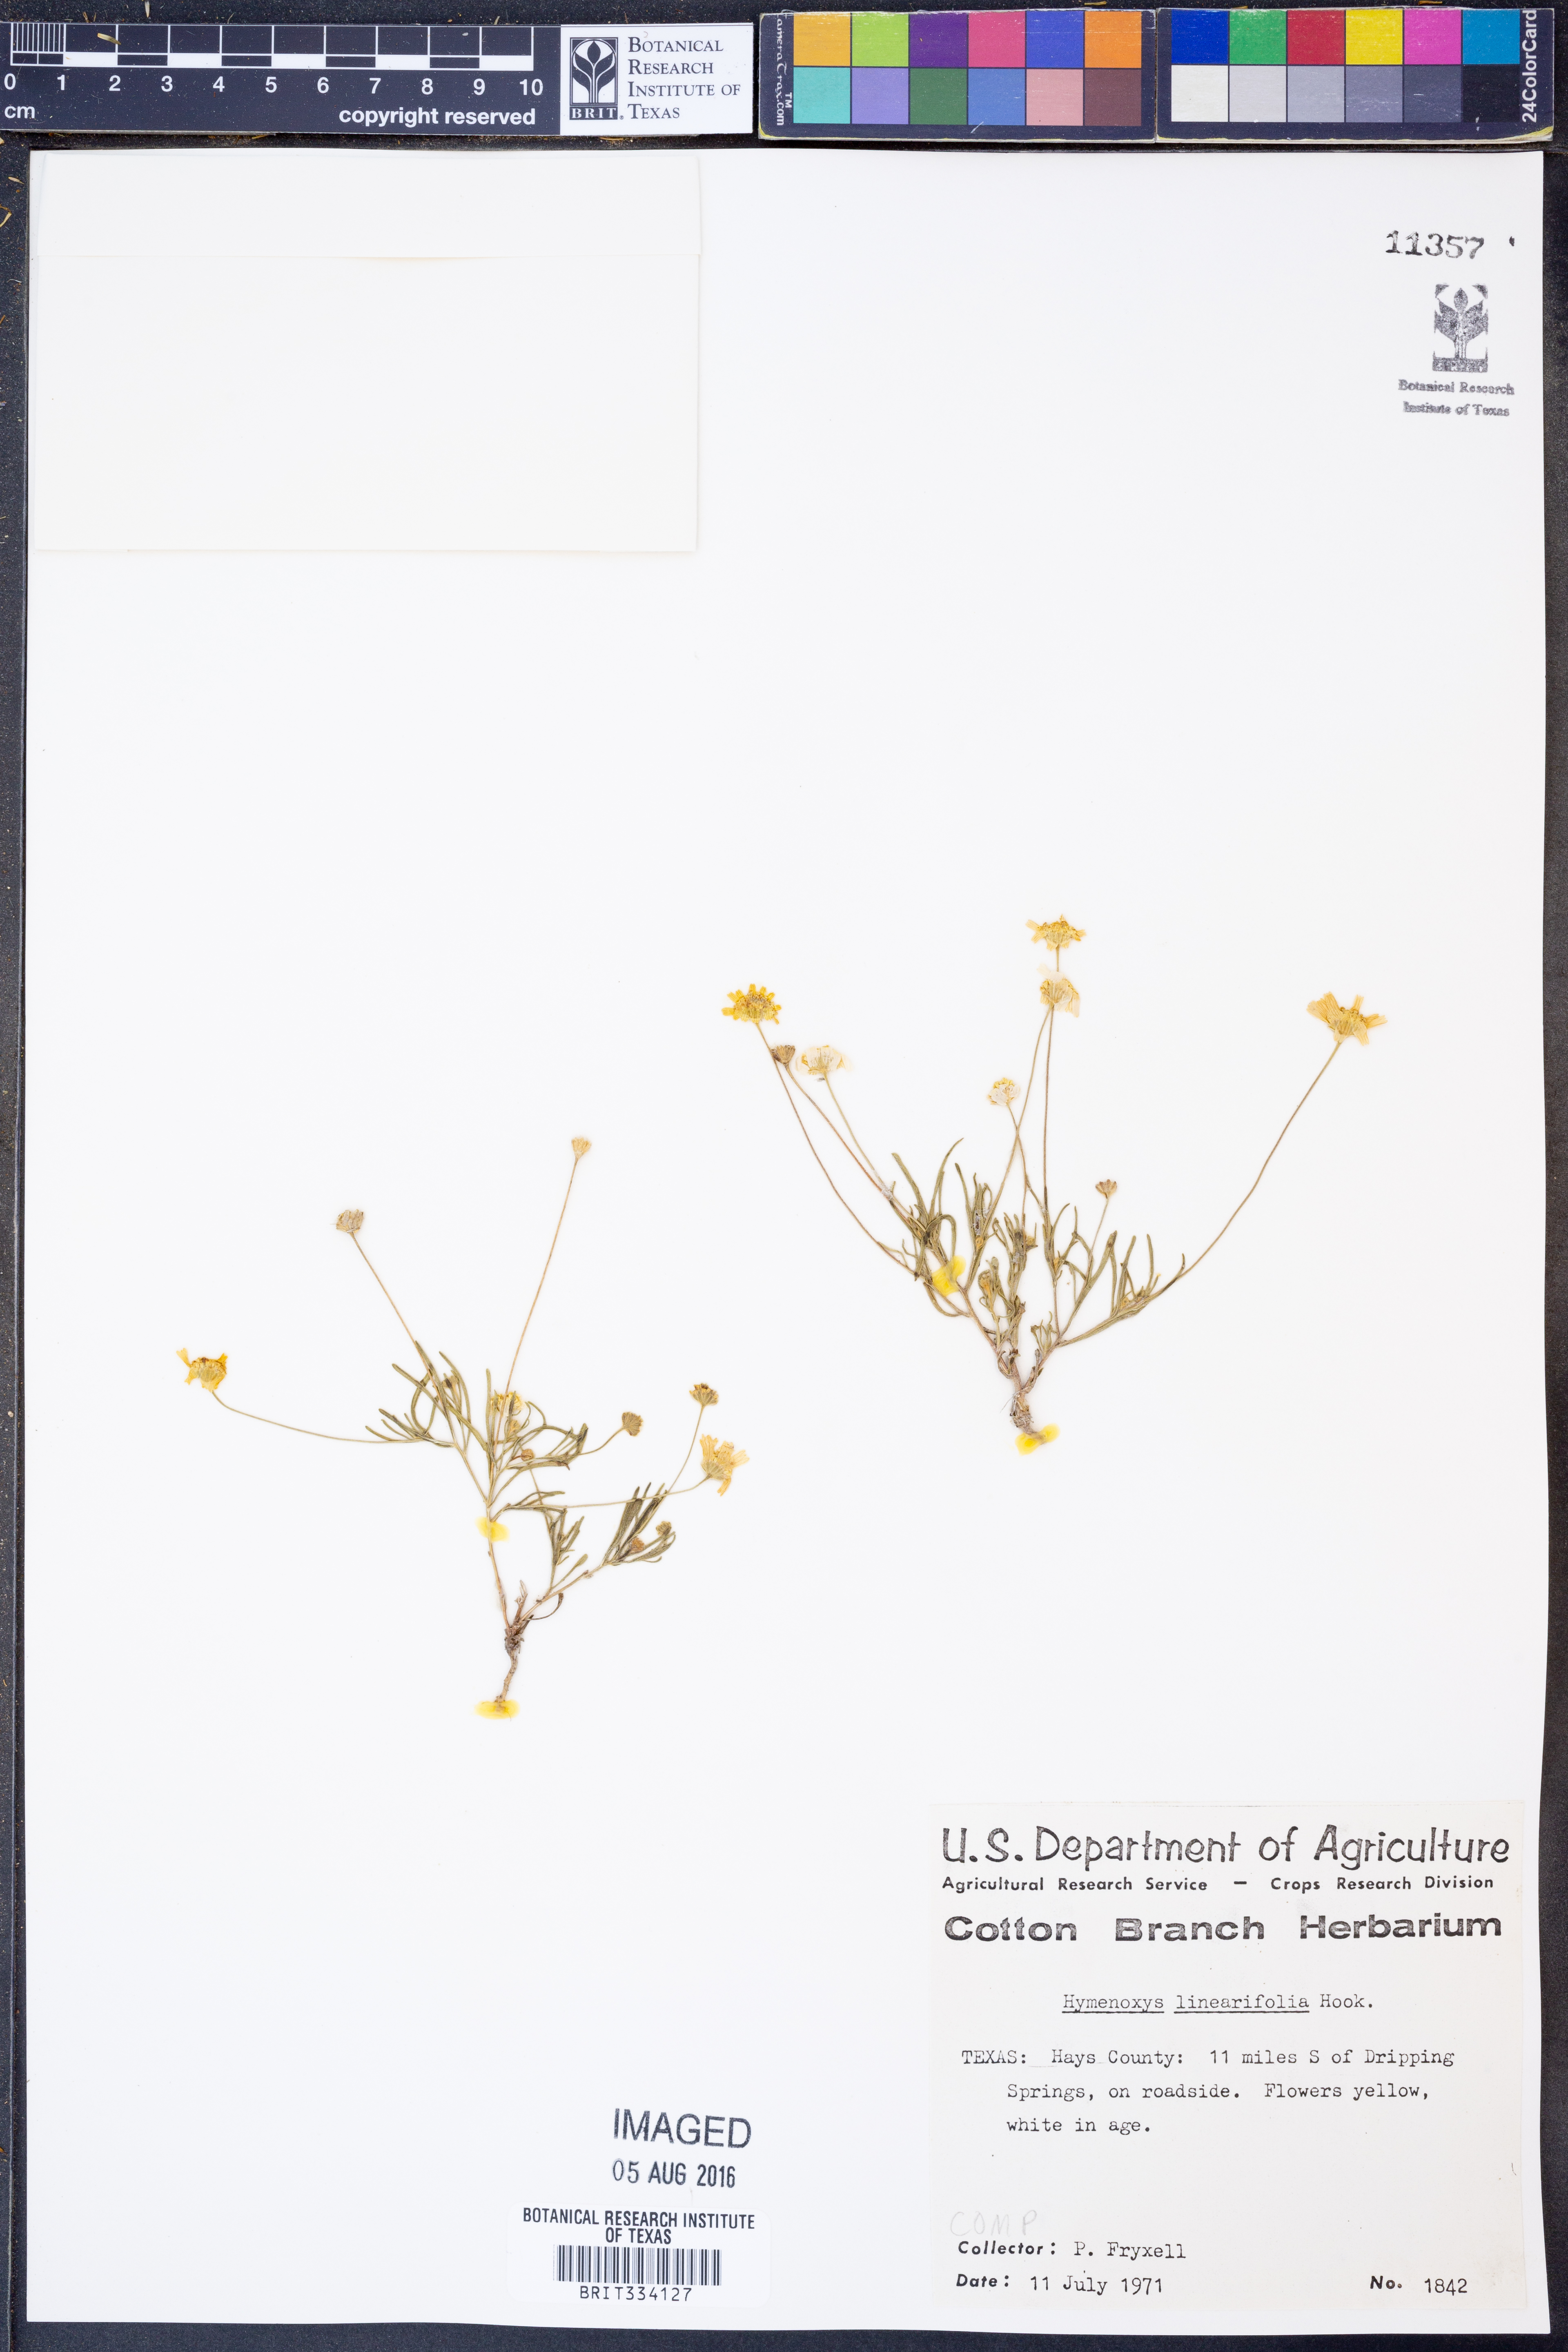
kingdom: Plantae
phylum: Tracheophyta
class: Magnoliopsida
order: Asterales
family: Asteraceae
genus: Tetraneuris
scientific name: Tetraneuris linearifolia
